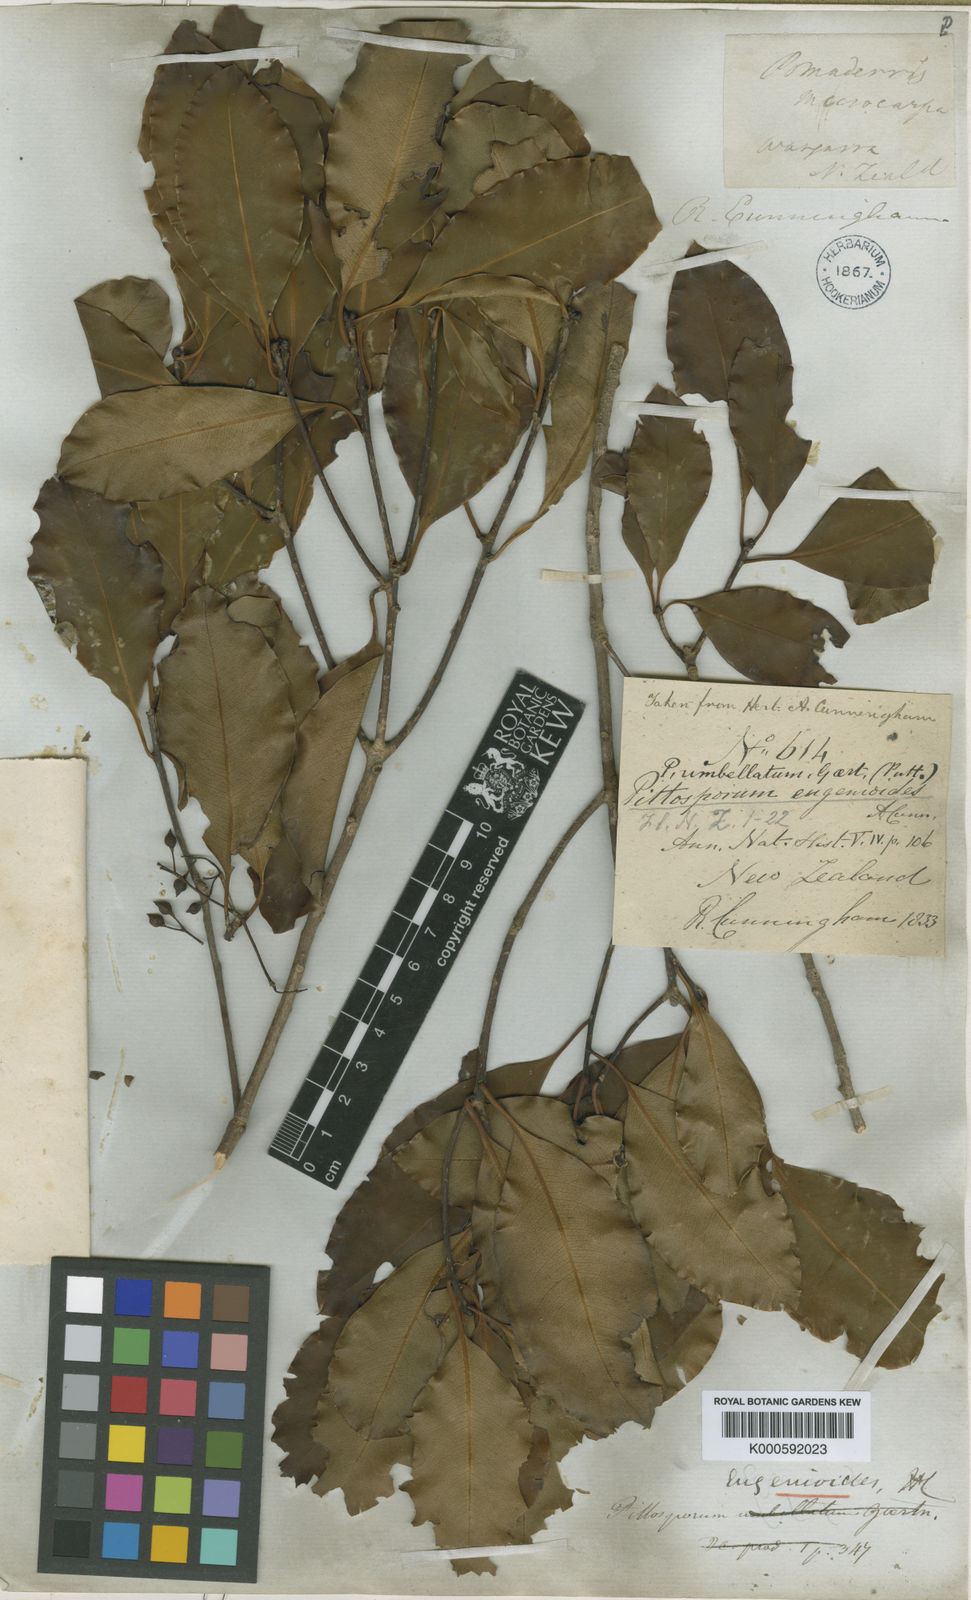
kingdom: Plantae
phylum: Tracheophyta
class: Magnoliopsida
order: Apiales
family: Pittosporaceae
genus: Pittosporum
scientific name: Pittosporum eugenioides
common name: Lemonwood
